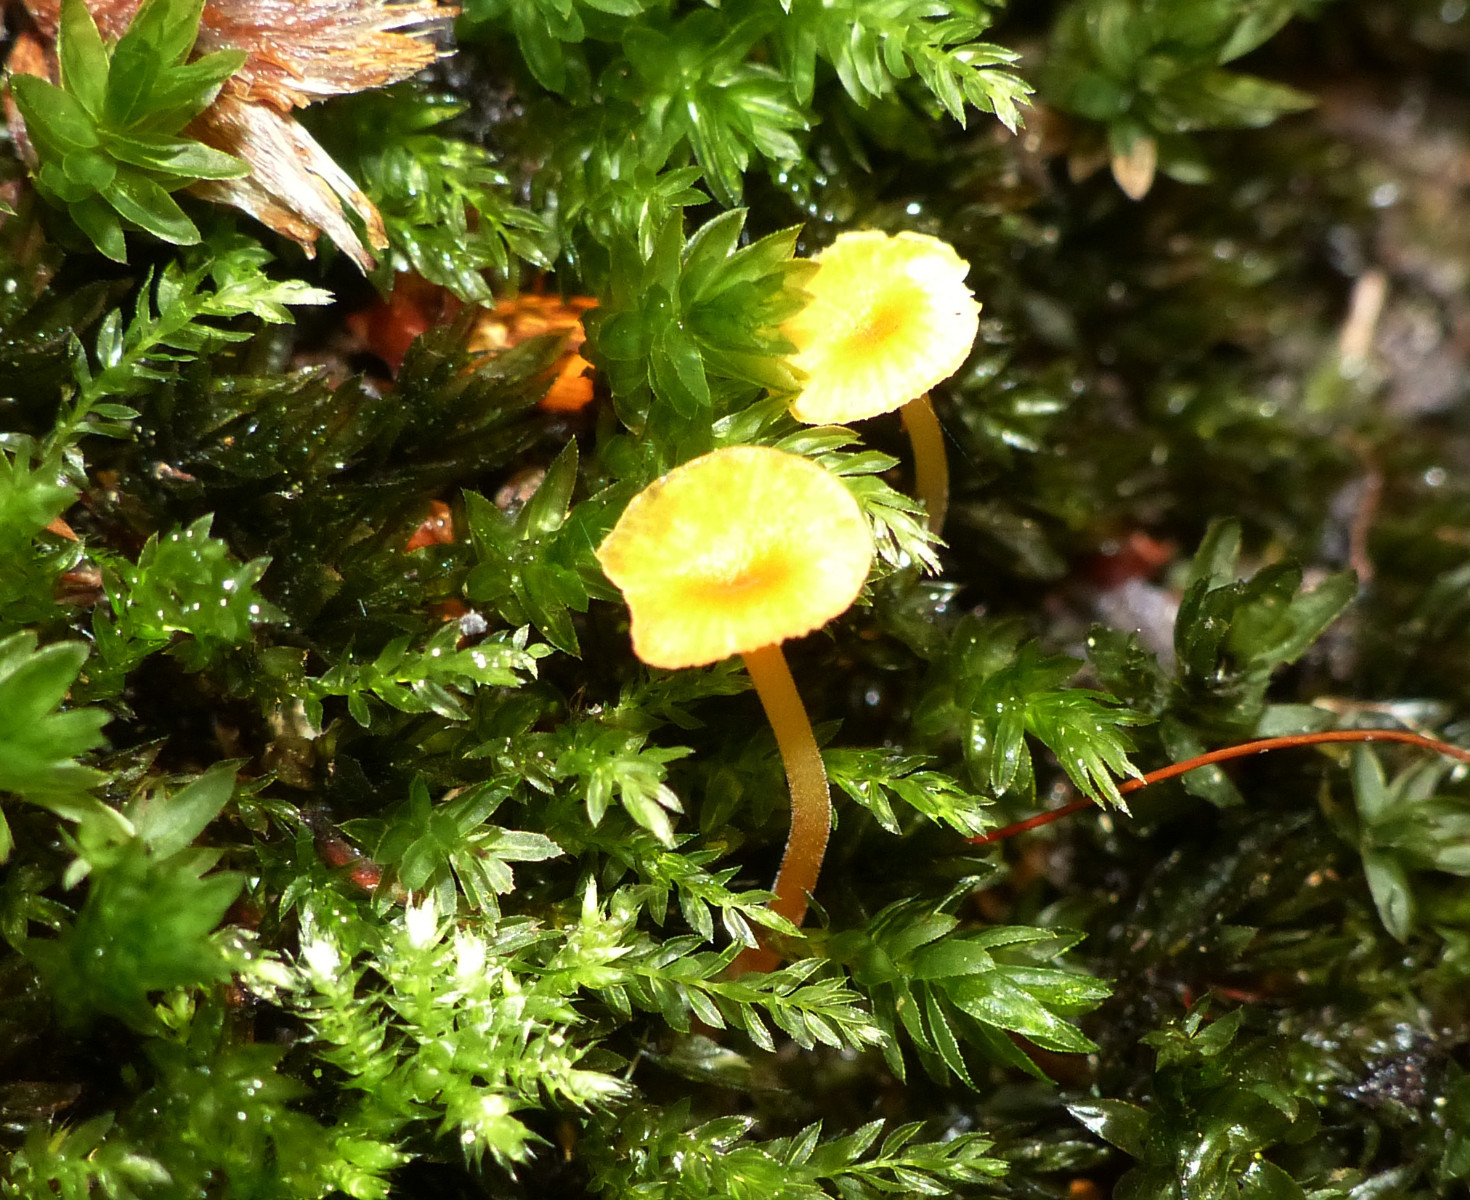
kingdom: Fungi
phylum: Basidiomycota
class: Agaricomycetes
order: Hymenochaetales
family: Rickenellaceae
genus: Rickenella
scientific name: Rickenella fibula
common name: orange mosnavlehat
